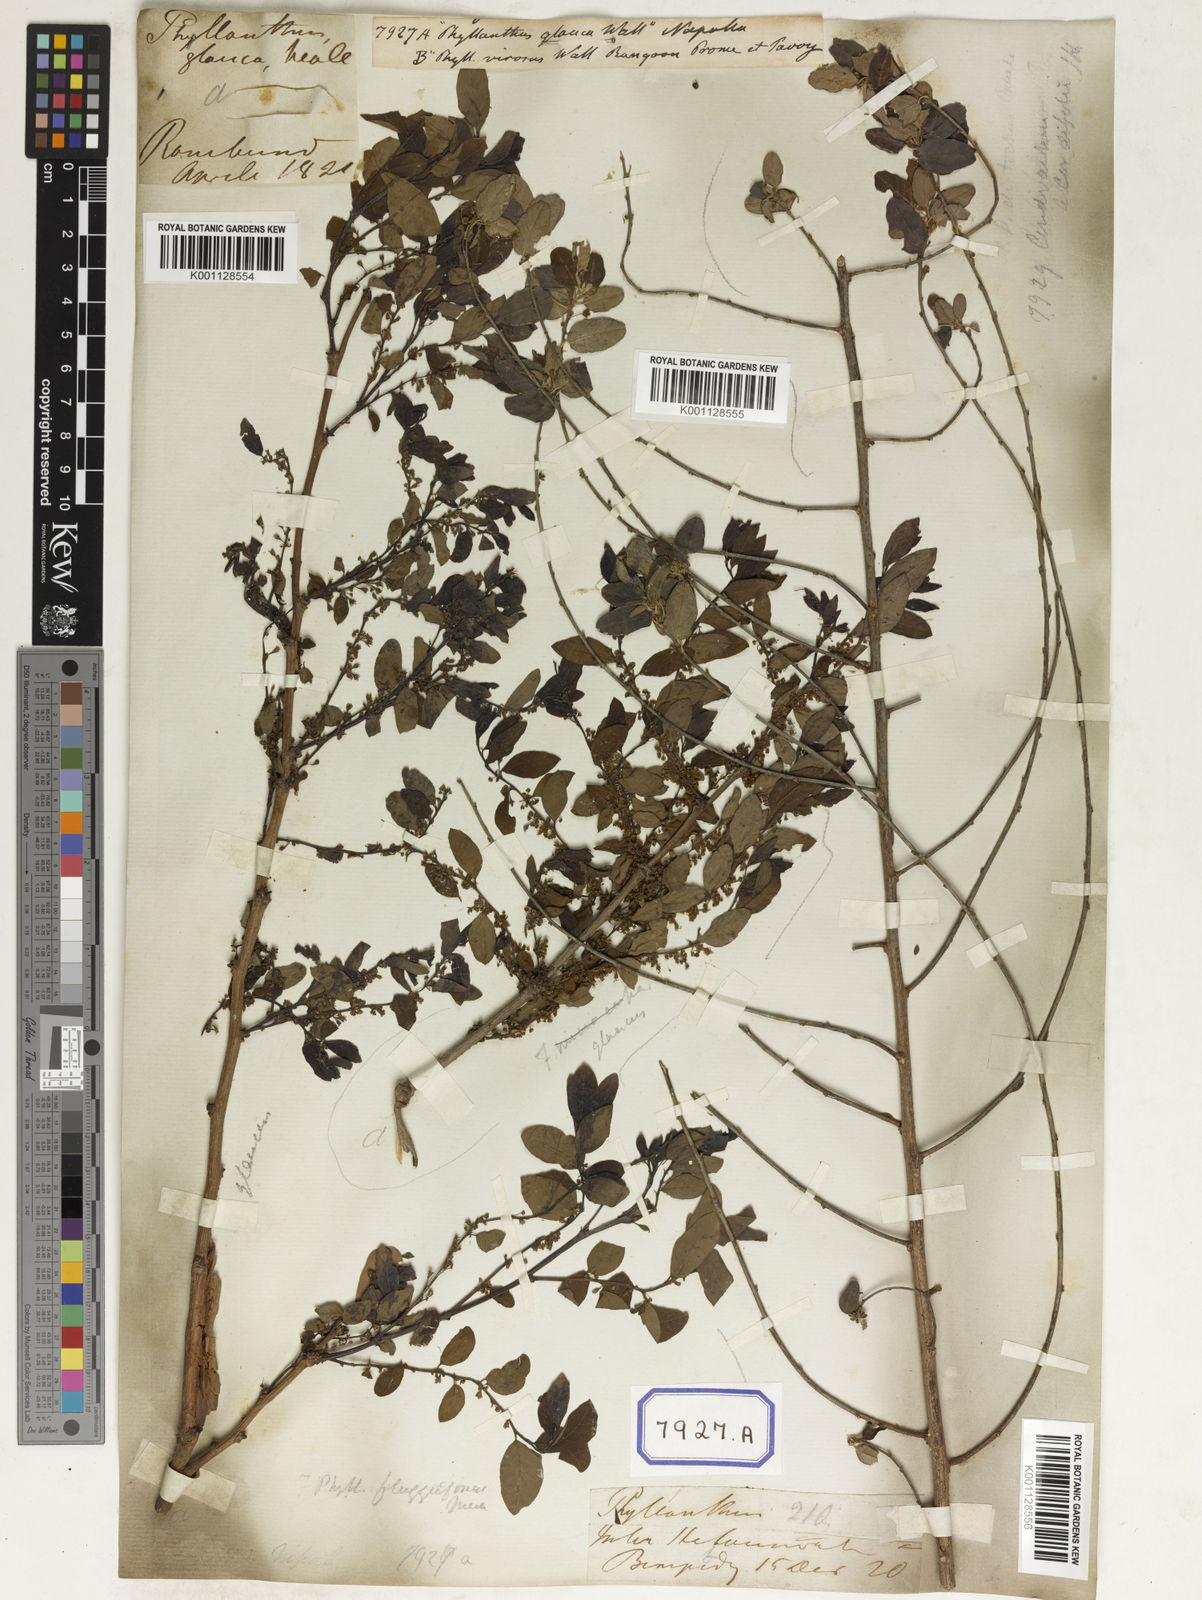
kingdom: Plantae
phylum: Tracheophyta
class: Magnoliopsida
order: Malpighiales
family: Euphorbiaceae
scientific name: Euphorbiaceae
